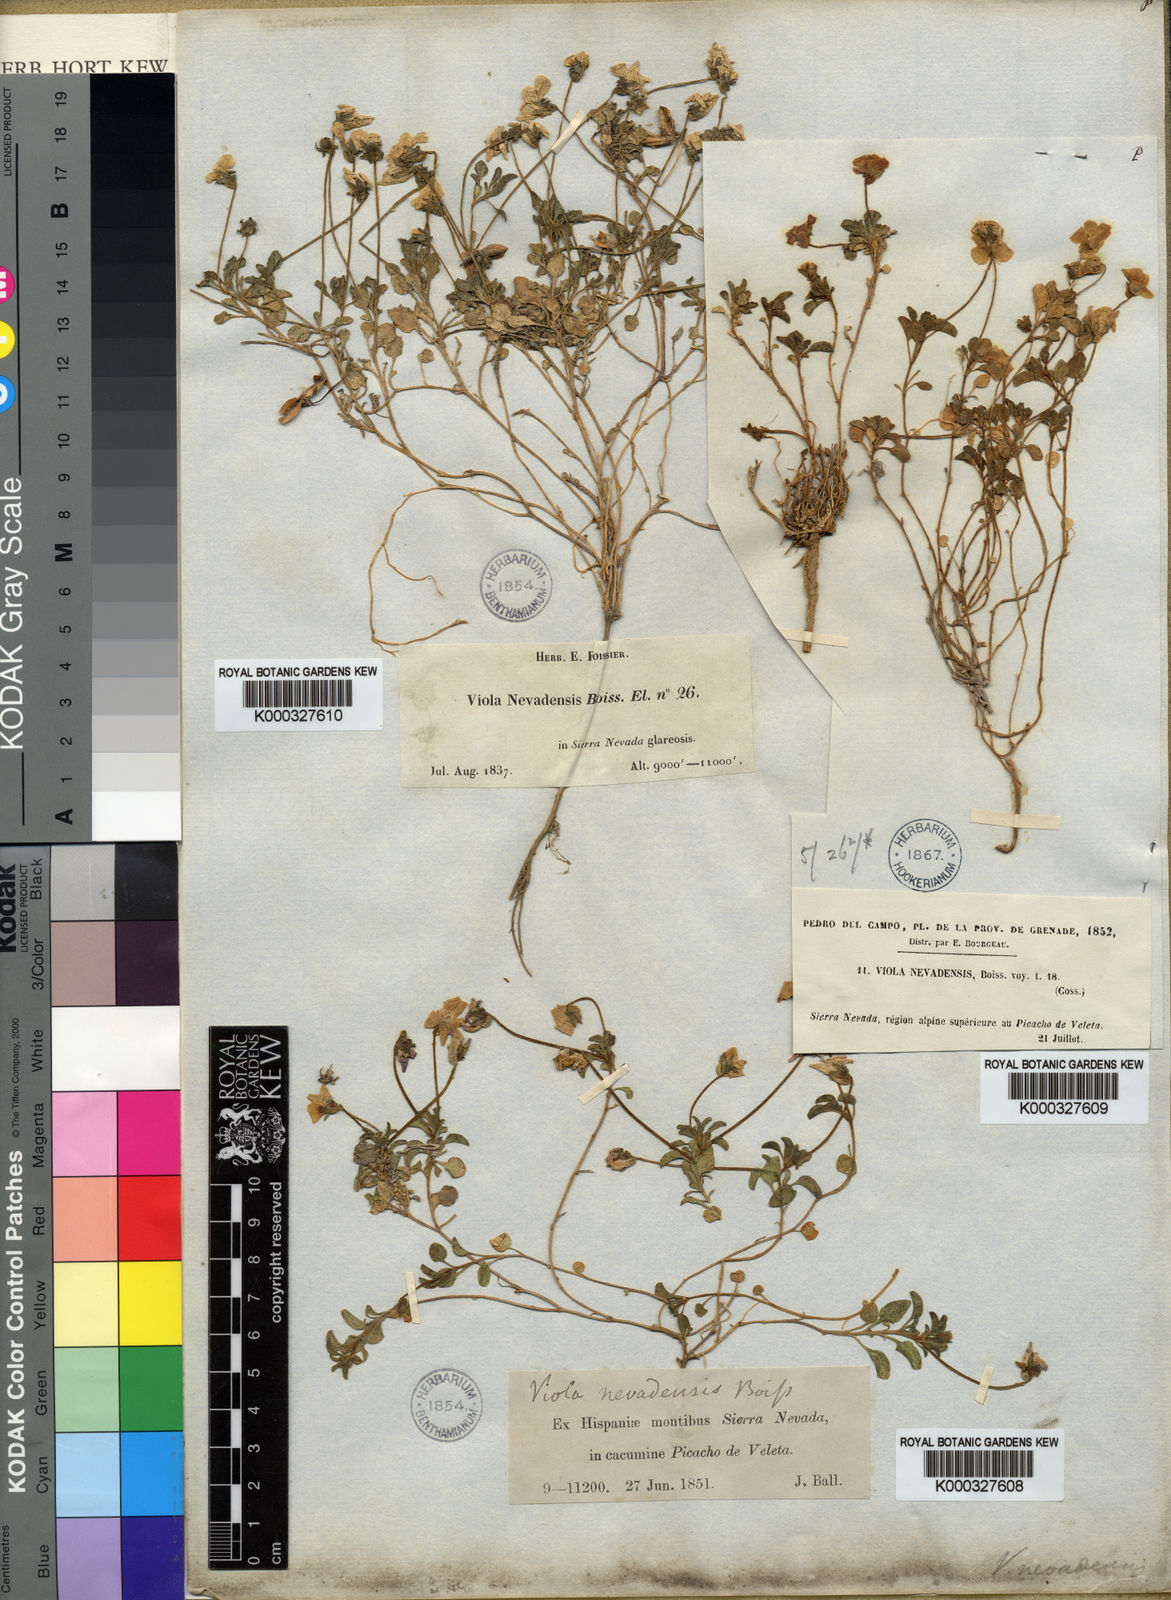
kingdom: Plantae
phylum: Tracheophyta
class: Magnoliopsida
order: Malpighiales
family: Violaceae
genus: Viola
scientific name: Viola crassiuscula
